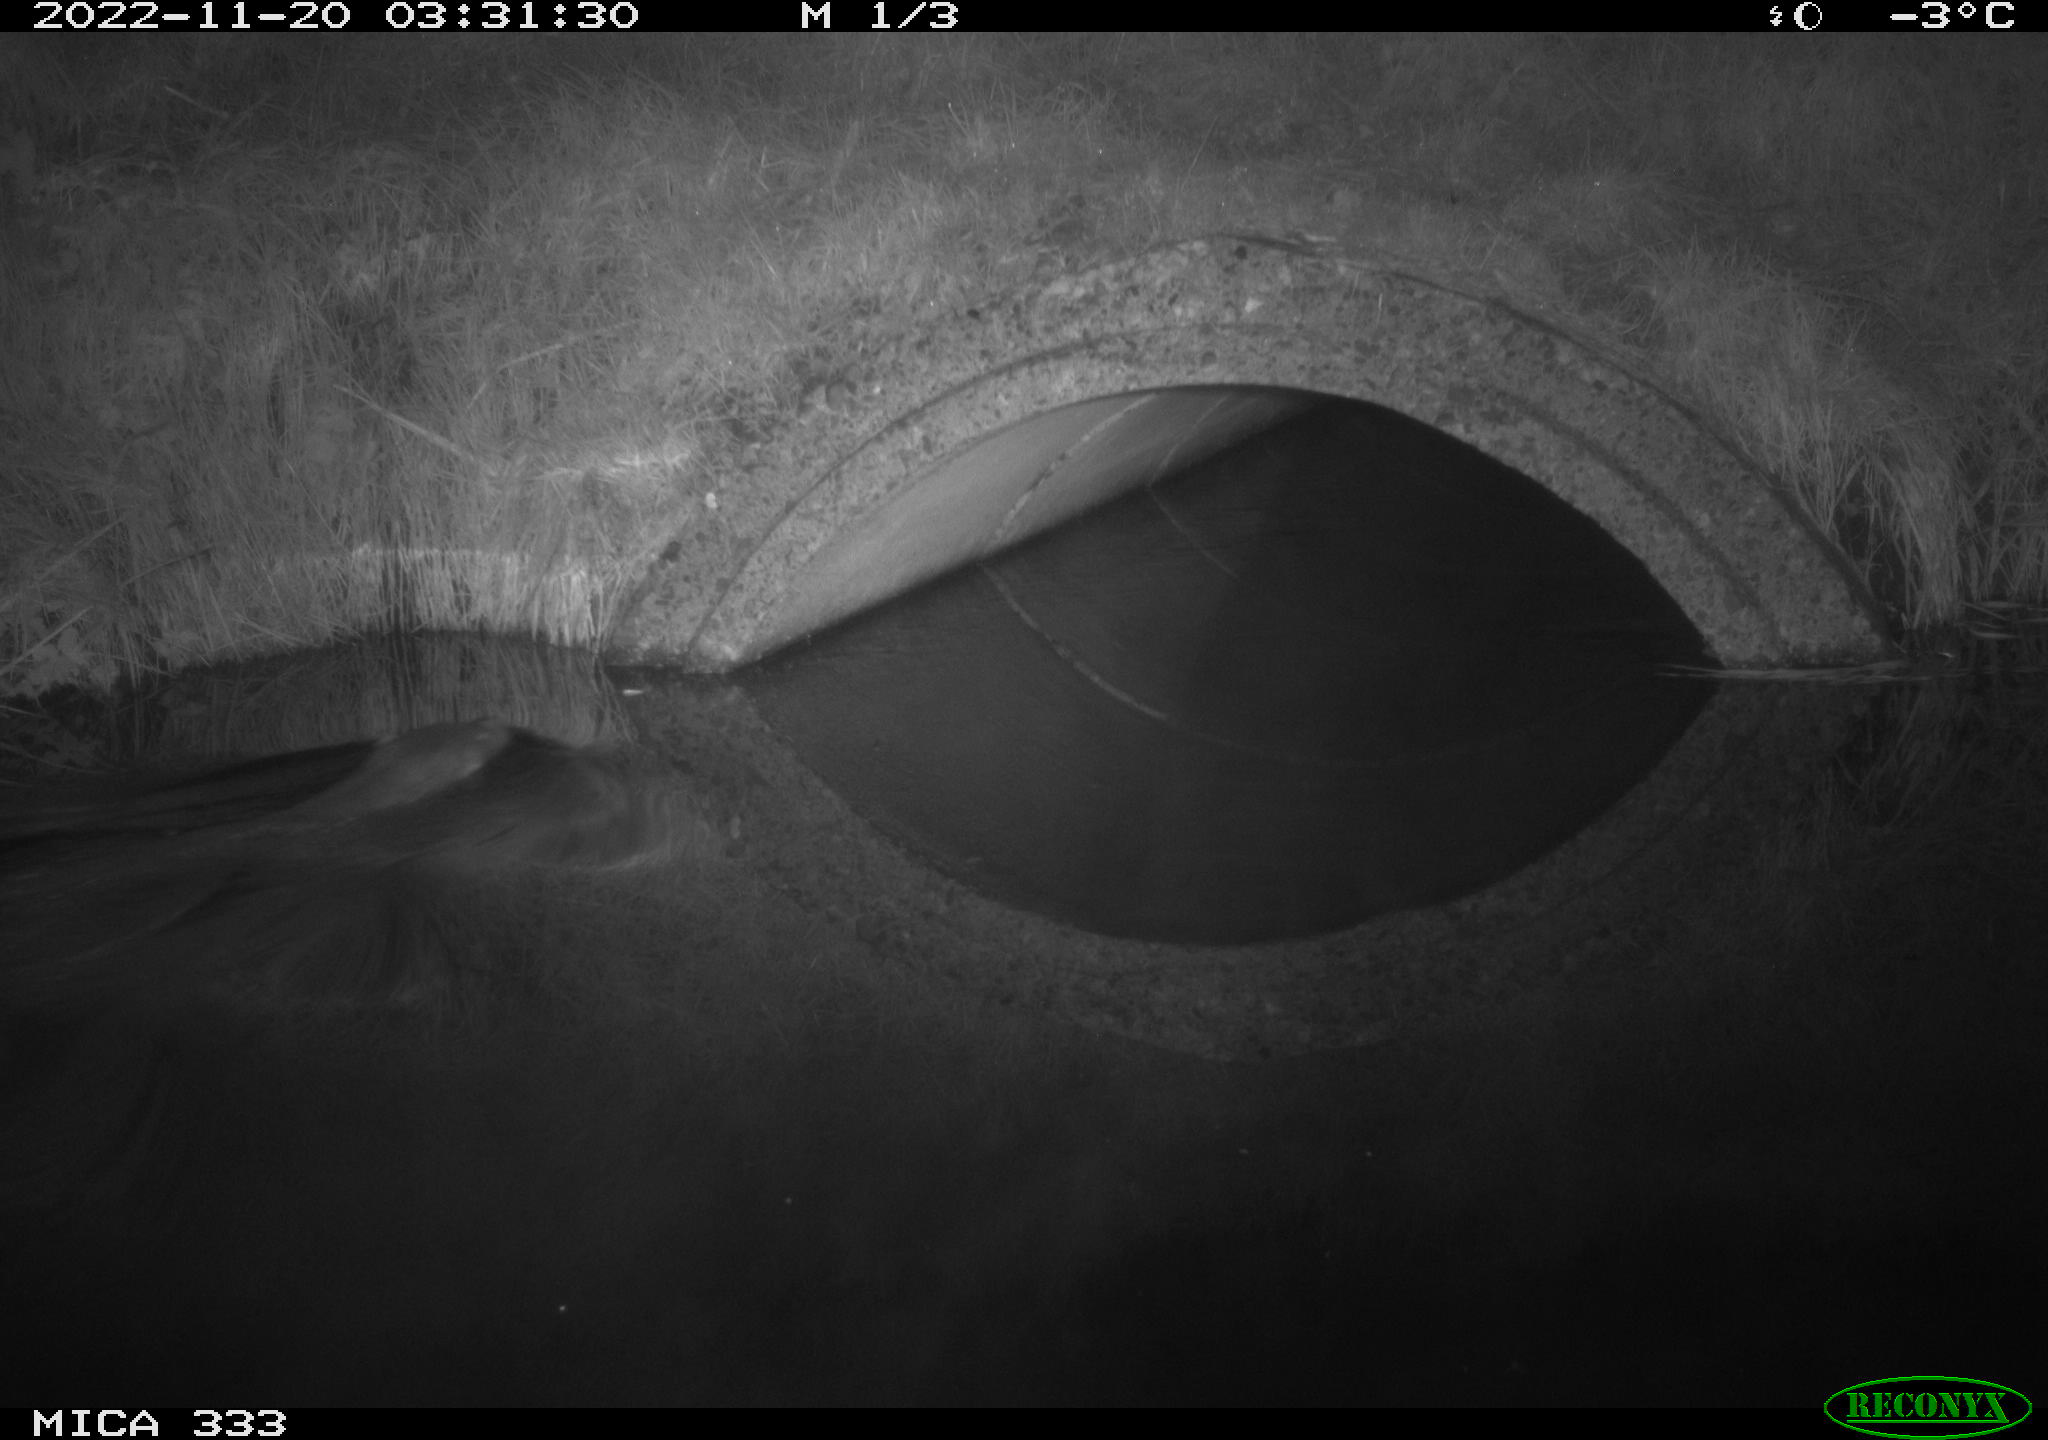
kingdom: Animalia
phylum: Chordata
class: Mammalia
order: Carnivora
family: Mustelidae
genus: Lutra
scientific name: Lutra lutra
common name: European otter
